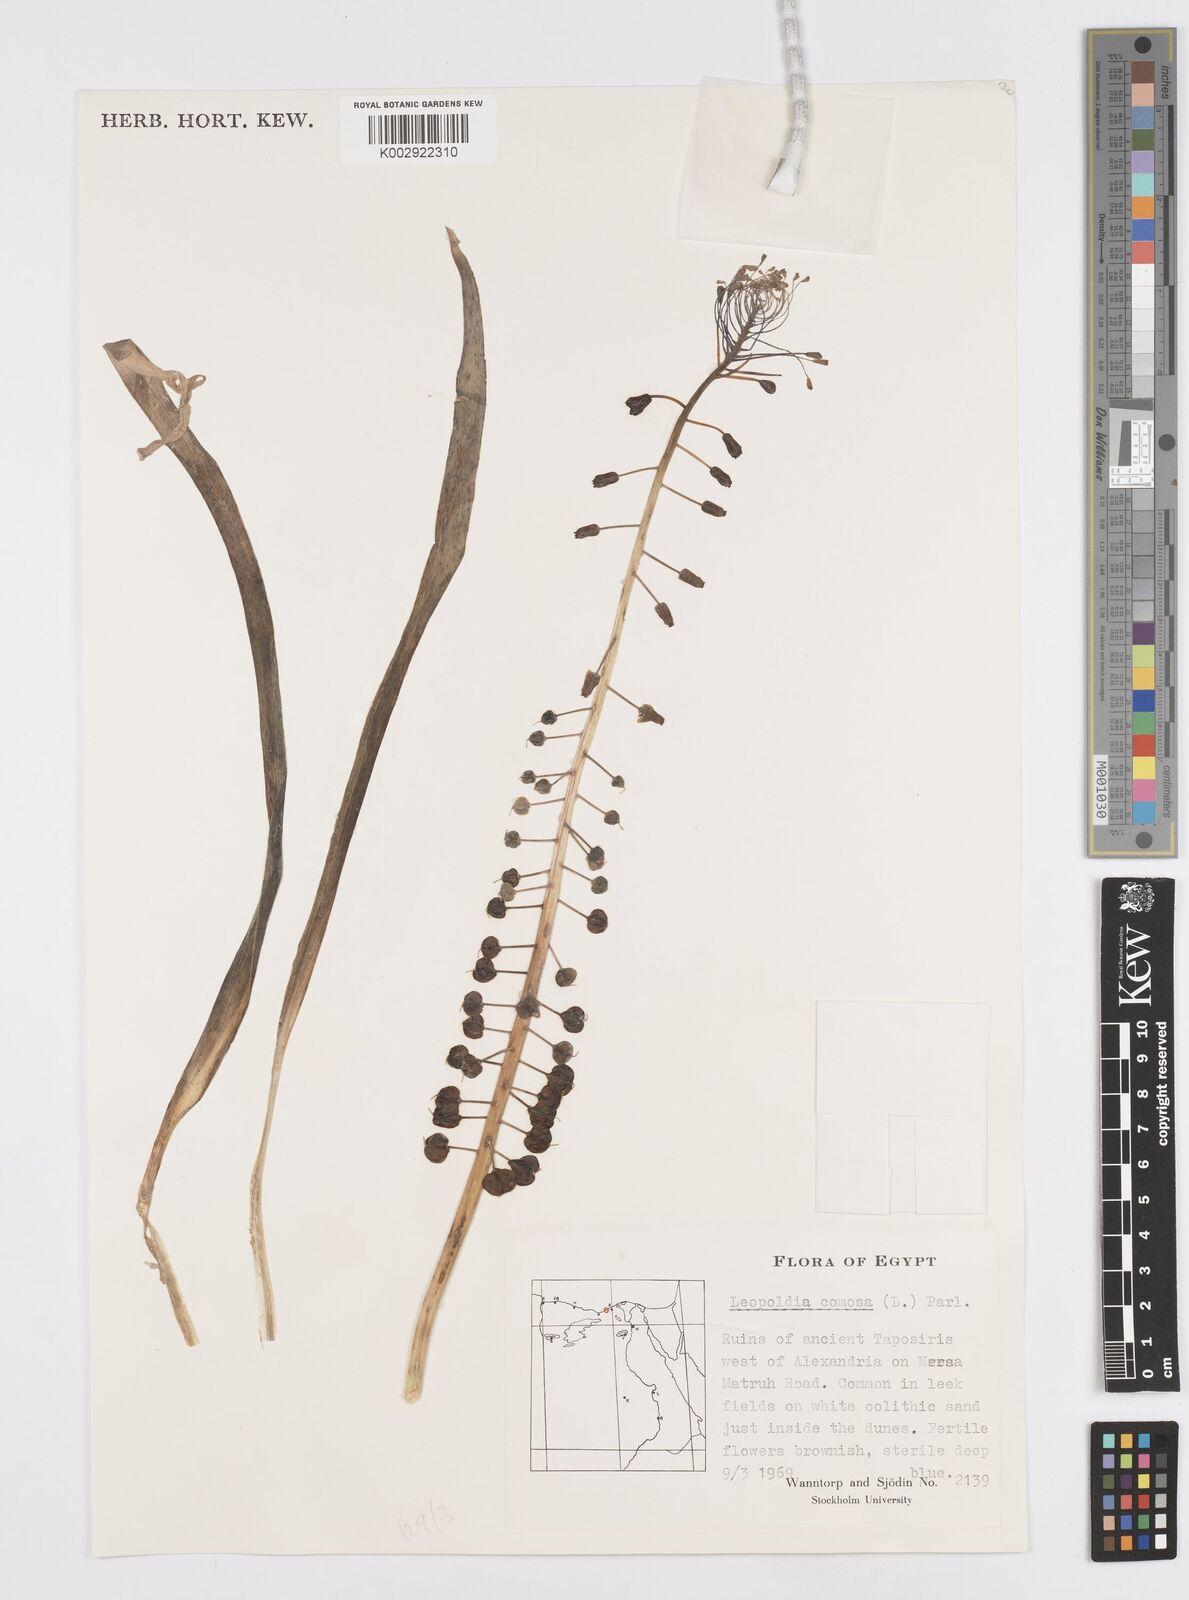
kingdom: Plantae
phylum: Tracheophyta
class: Liliopsida
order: Asparagales
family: Asparagaceae
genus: Muscari
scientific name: Muscari comosum
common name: Tassel hyacinth
